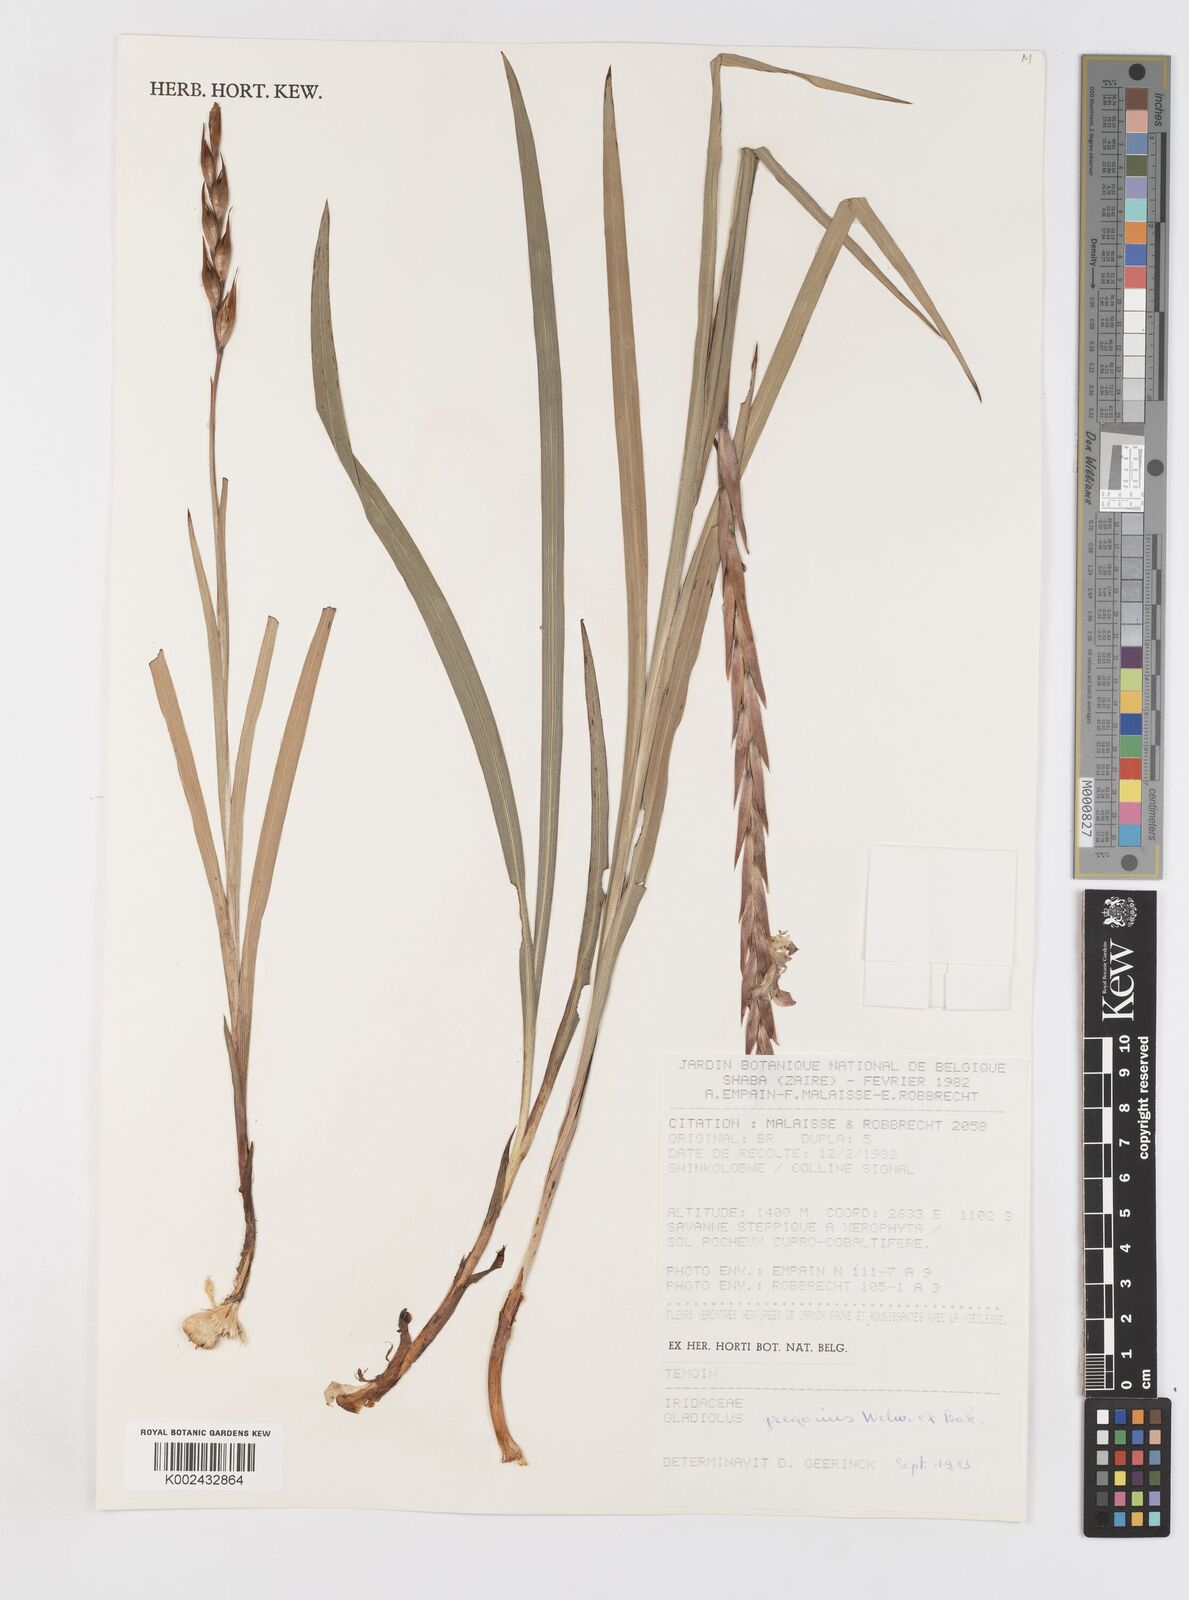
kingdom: Plantae
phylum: Tracheophyta
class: Liliopsida
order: Asparagales
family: Iridaceae
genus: Gladiolus
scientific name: Gladiolus gregarius
